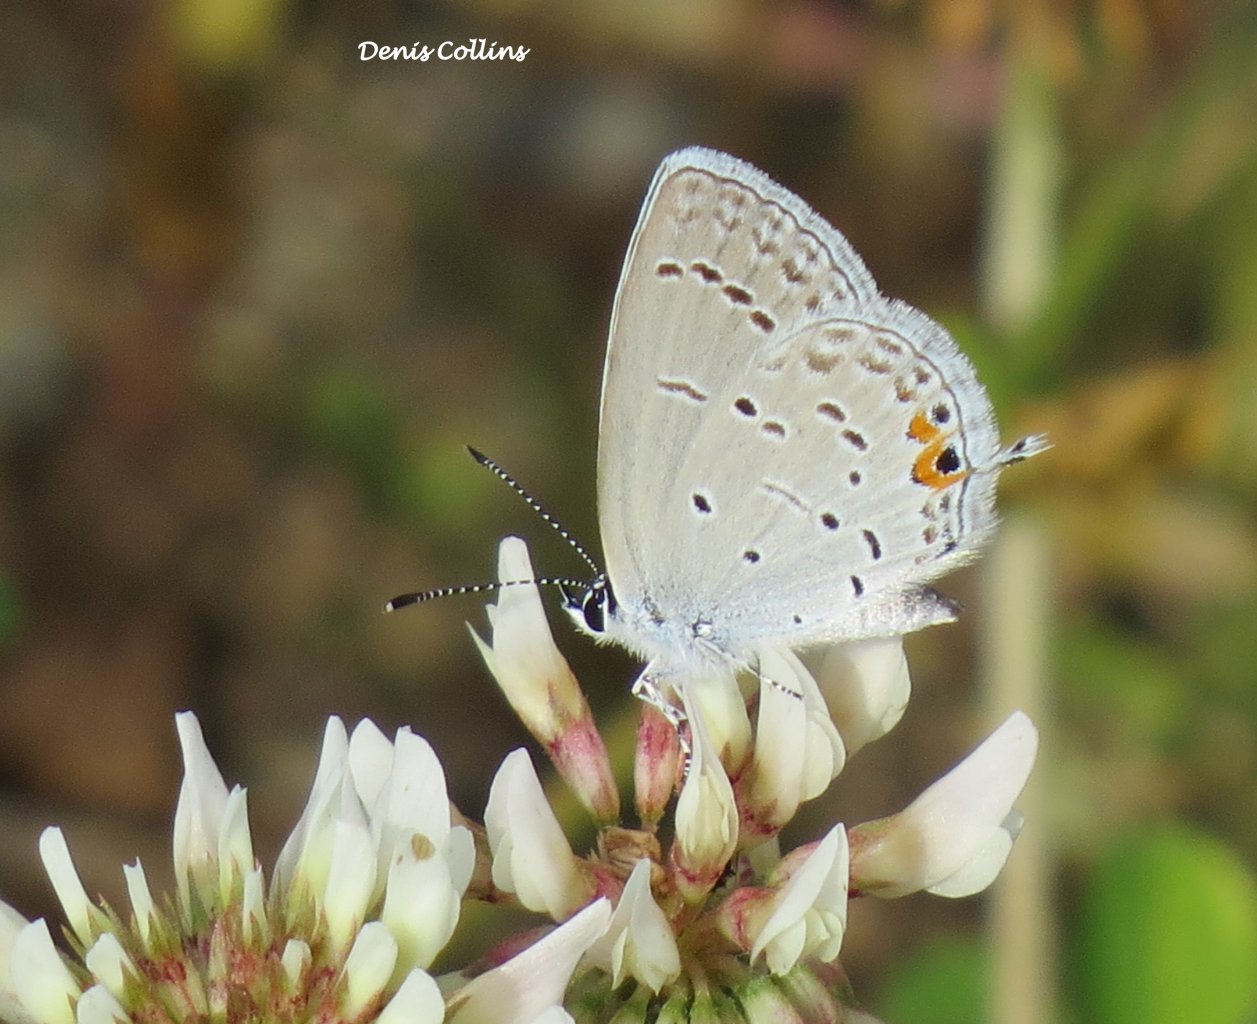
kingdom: Animalia
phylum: Arthropoda
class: Insecta
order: Lepidoptera
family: Lycaenidae
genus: Elkalyce
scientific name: Elkalyce comyntas
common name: Eastern Tailed-Blue
